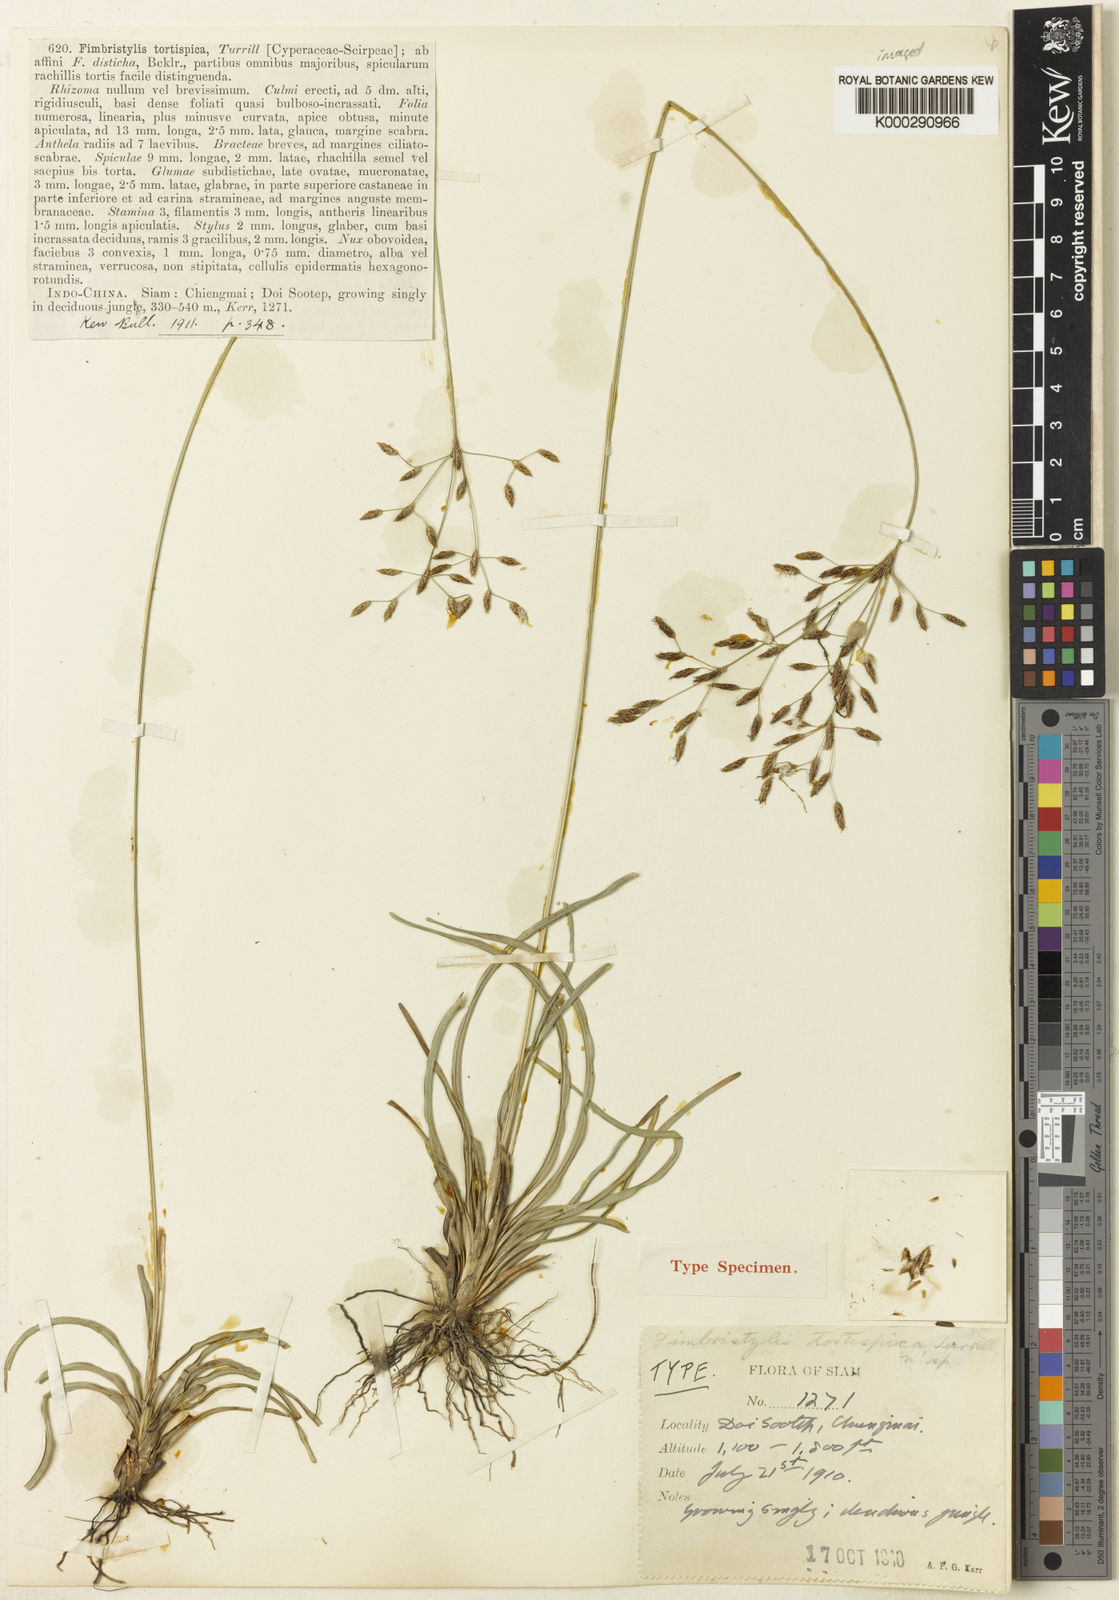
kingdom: Plantae
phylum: Tracheophyta
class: Liliopsida
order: Poales
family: Cyperaceae
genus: Fimbristylis
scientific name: Fimbristylis eragrostis
